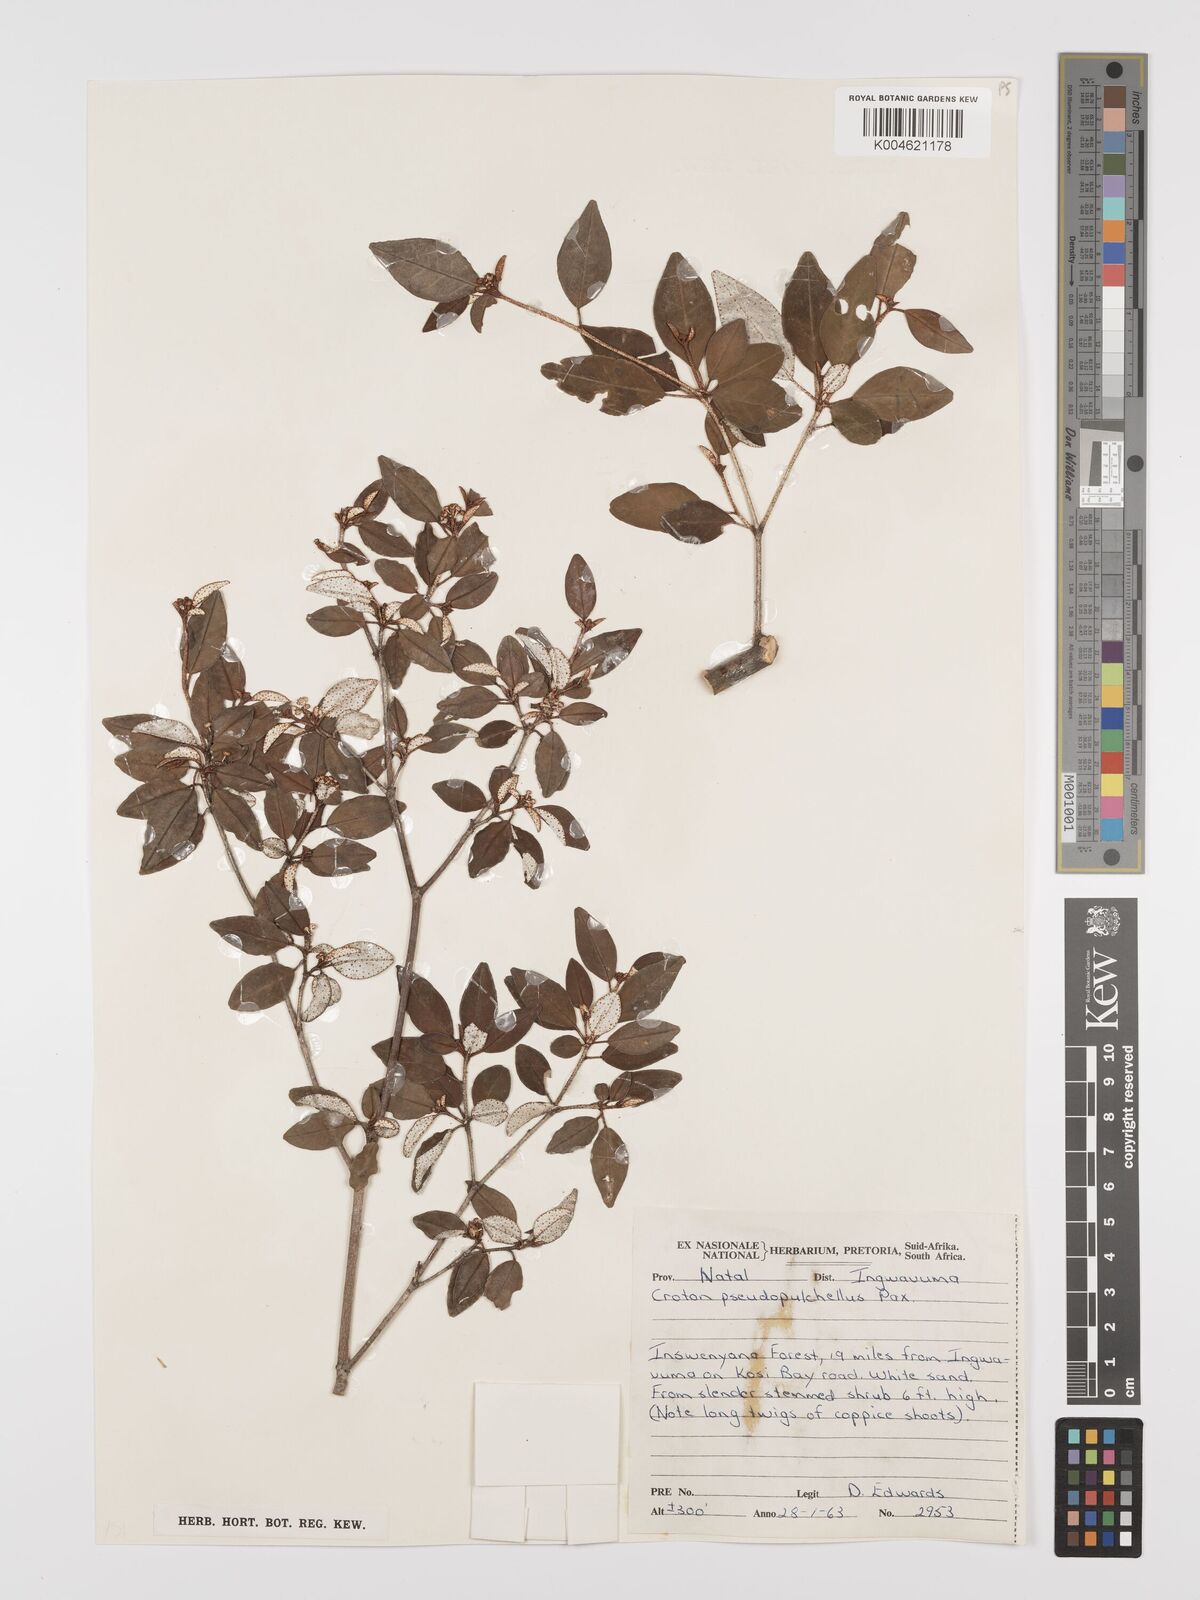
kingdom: Plantae
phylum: Tracheophyta
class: Magnoliopsida
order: Malpighiales
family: Euphorbiaceae
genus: Croton
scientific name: Croton pseudopulchellus
